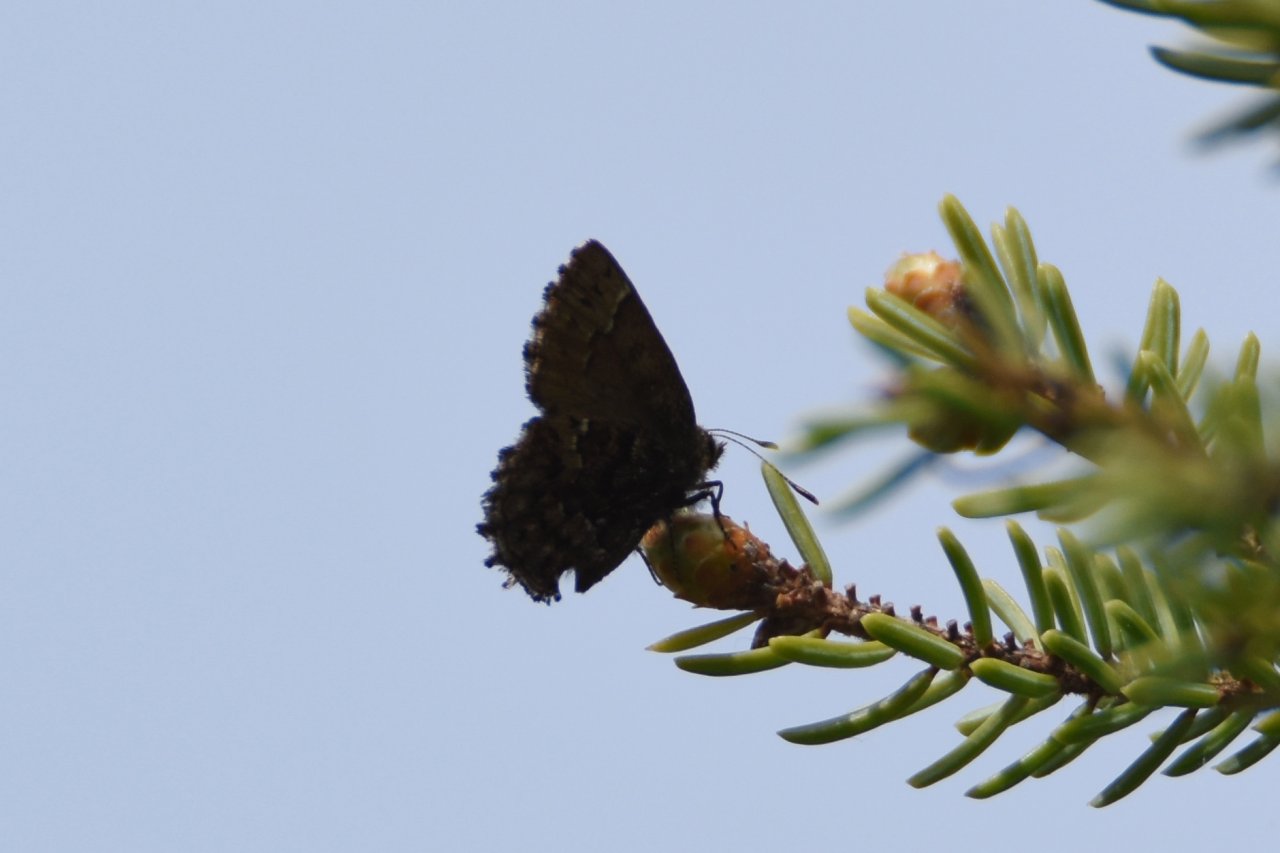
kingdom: Animalia
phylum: Arthropoda
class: Insecta
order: Lepidoptera
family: Lycaenidae
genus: Incisalia
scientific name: Incisalia lanoraieensis
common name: Bog Elfin
